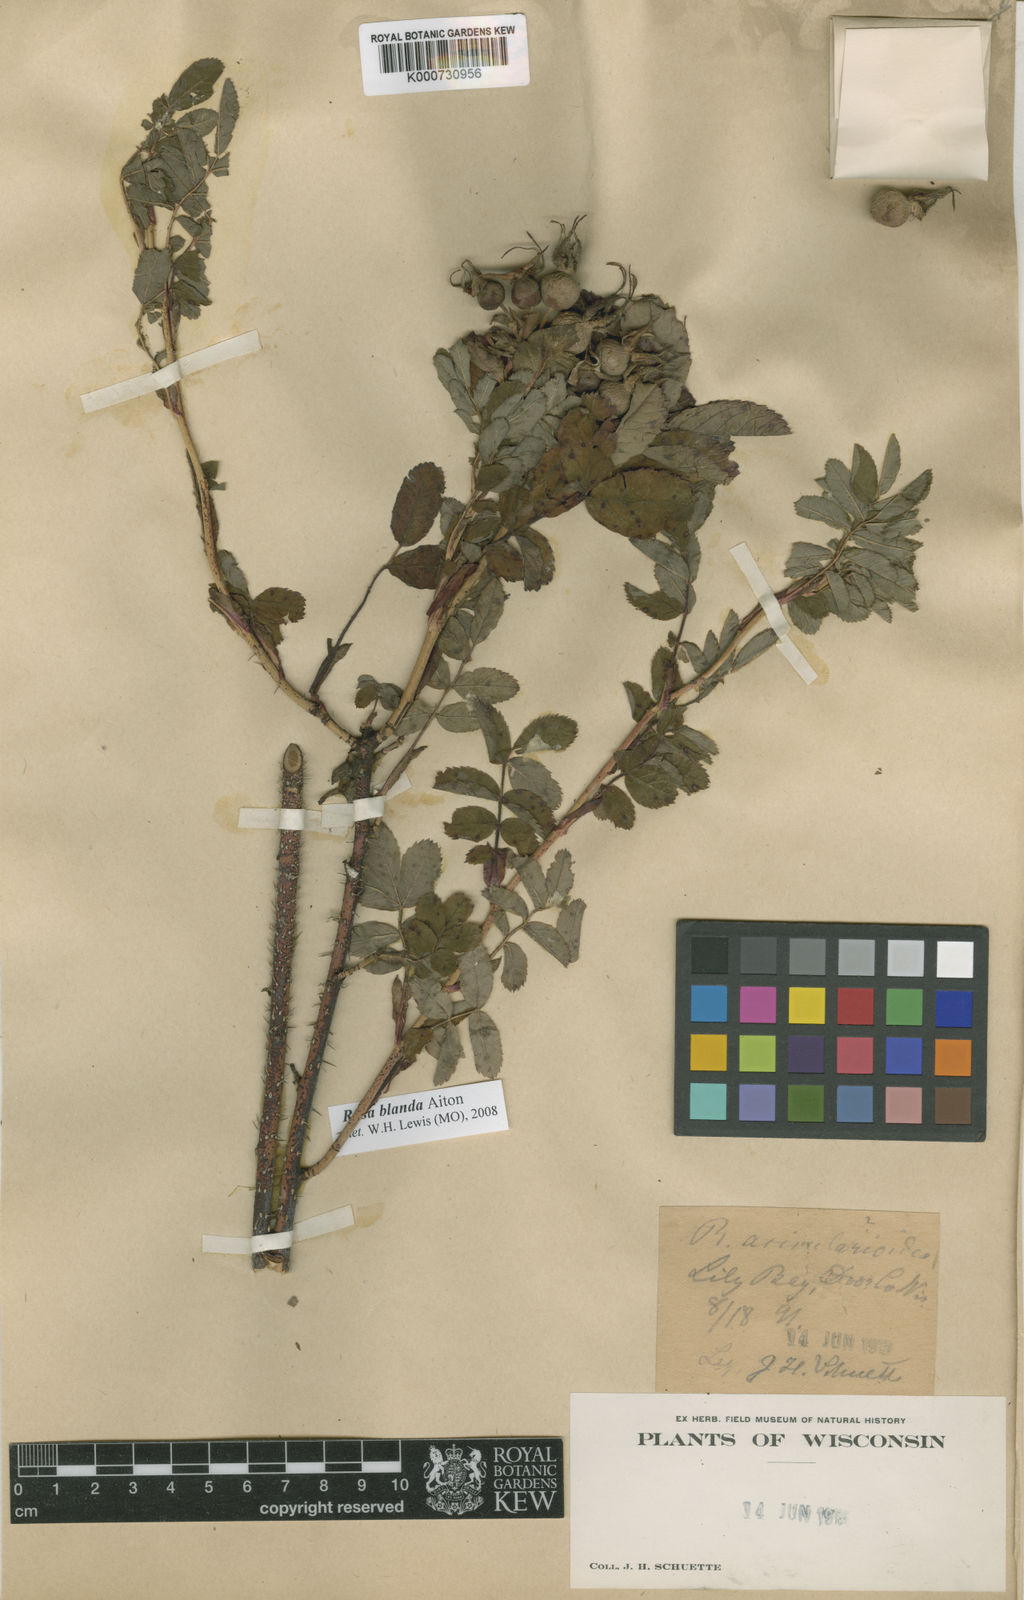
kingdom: Plantae
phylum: Tracheophyta
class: Magnoliopsida
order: Rosales
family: Rosaceae
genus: Rosa
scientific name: Rosa blanda
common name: Smooth rose
